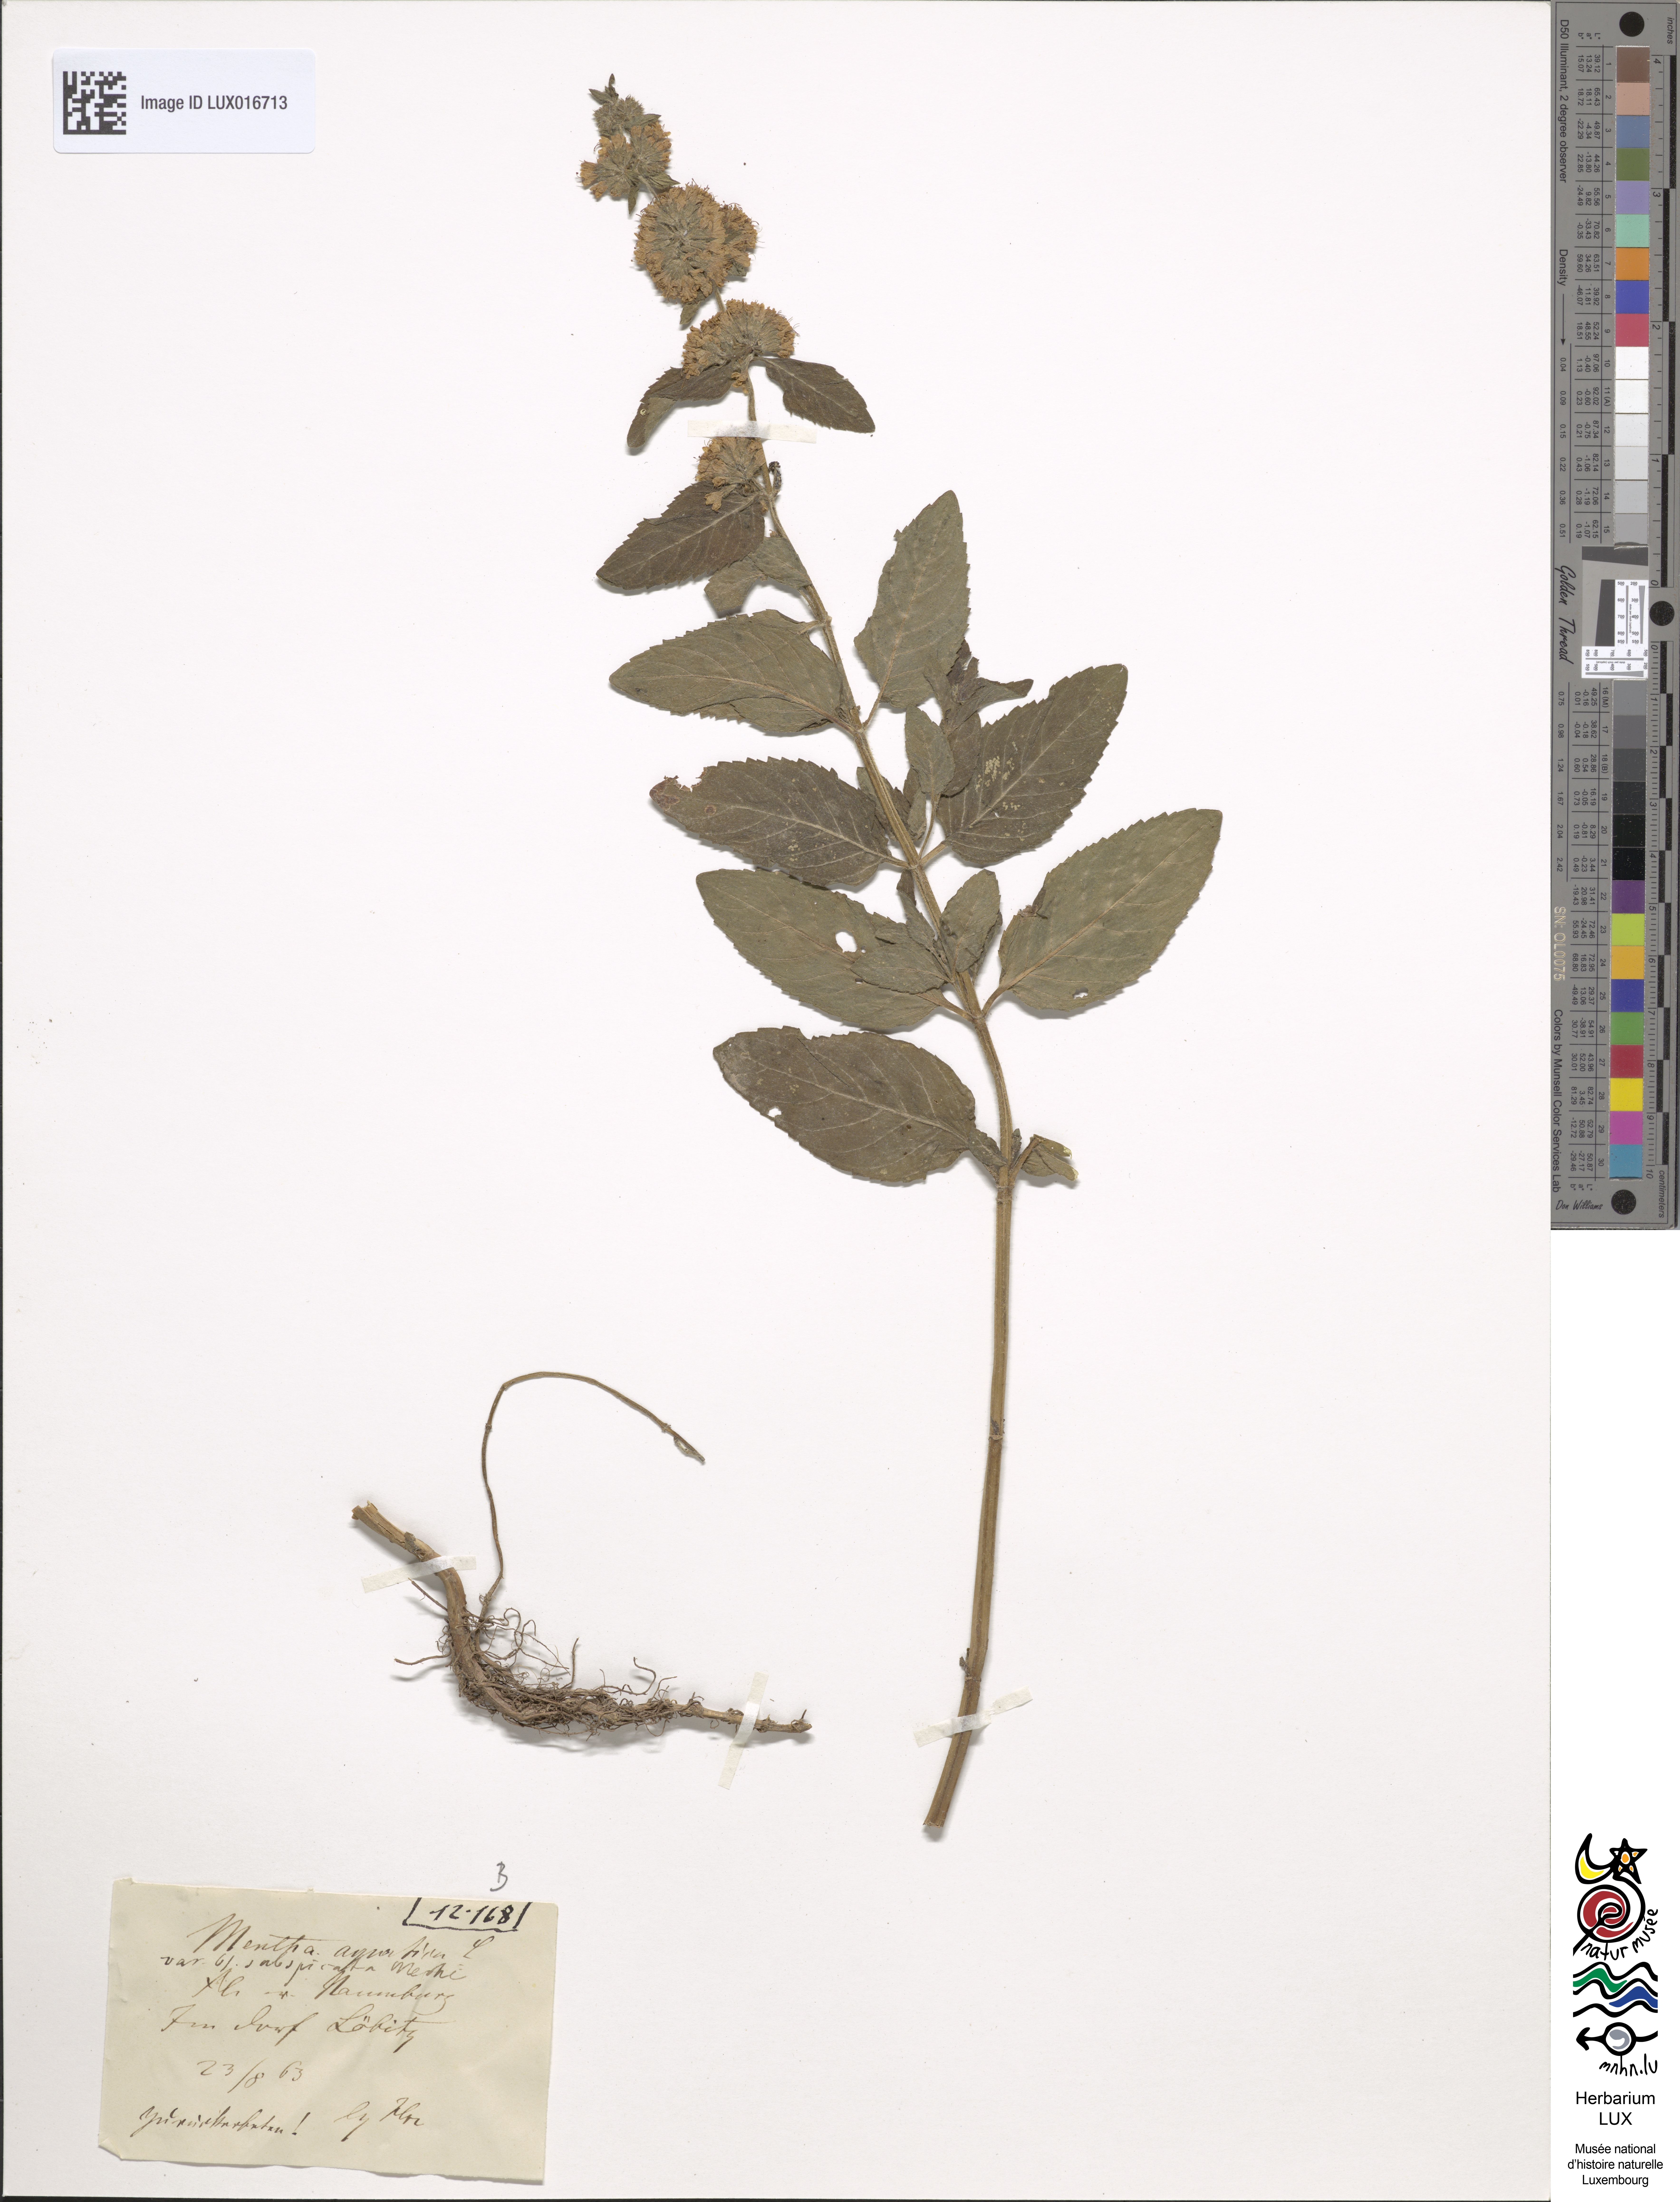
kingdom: Plantae
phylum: Tracheophyta
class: Magnoliopsida
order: Lamiales
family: Lamiaceae
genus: Mentha
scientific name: Mentha aquatica
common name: Water mint
